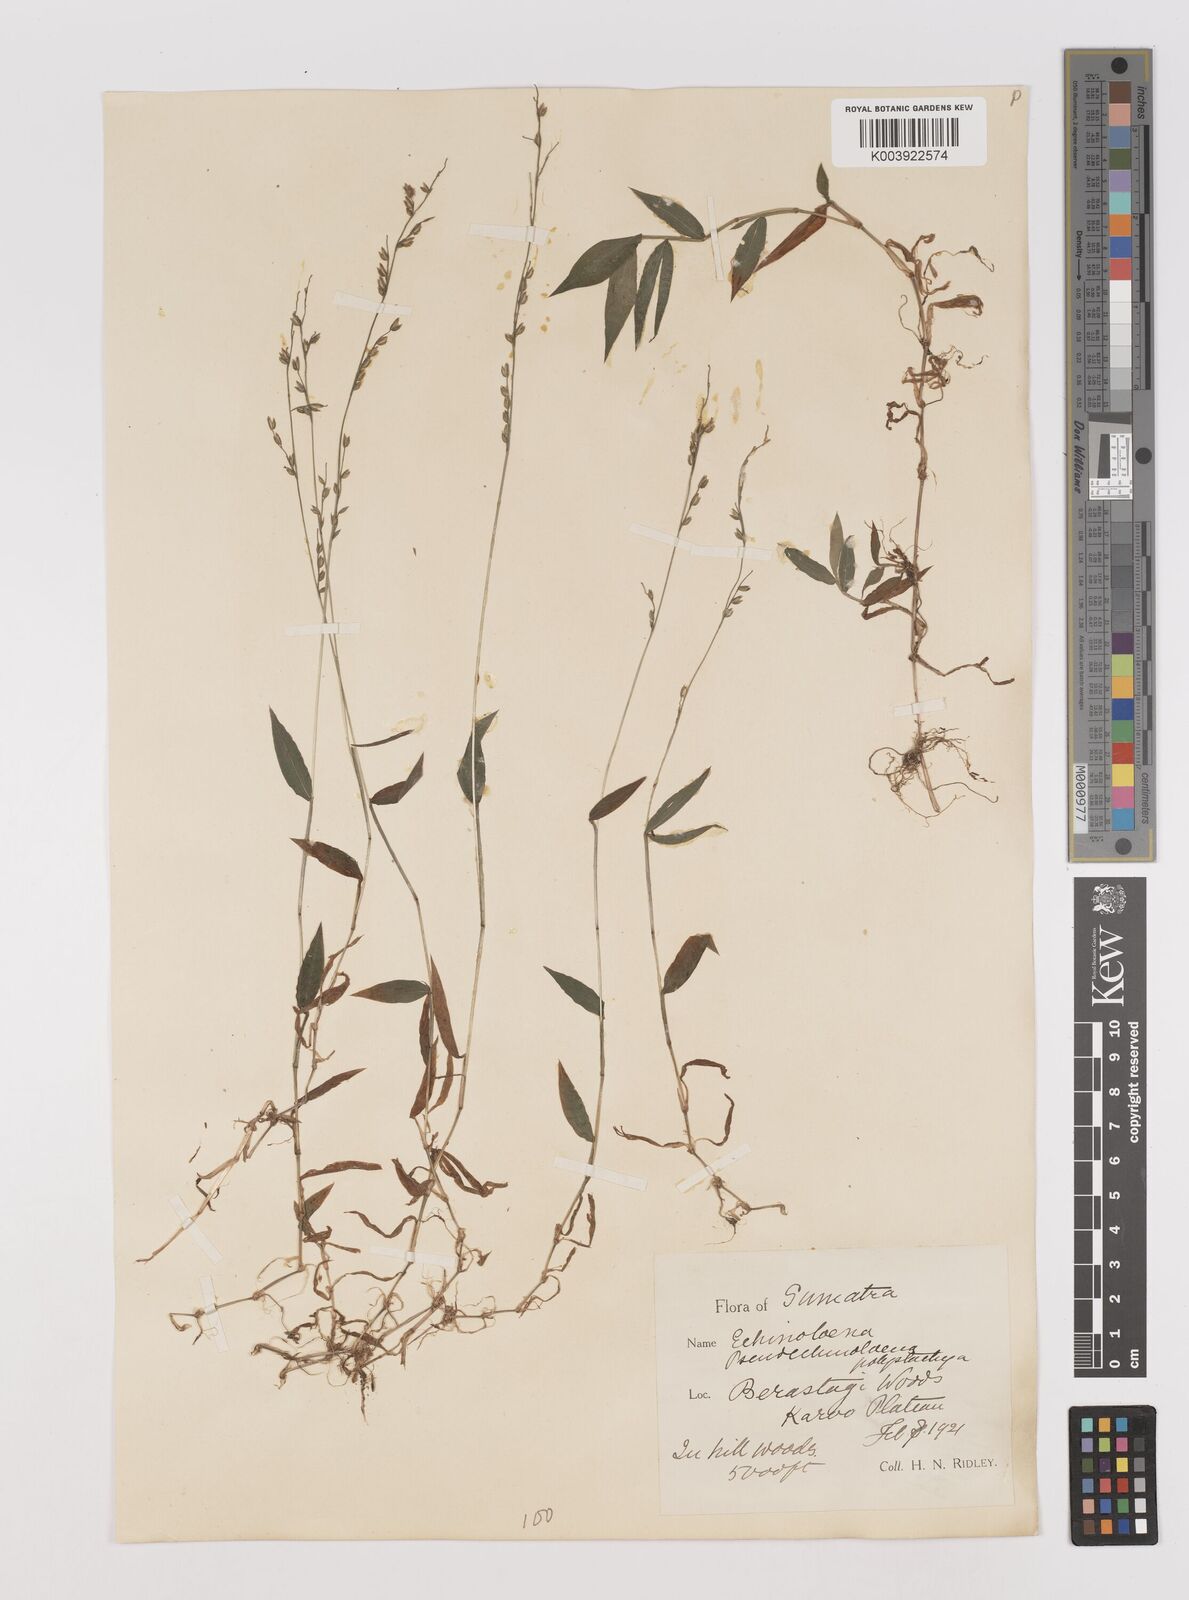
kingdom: Plantae
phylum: Tracheophyta
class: Liliopsida
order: Poales
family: Poaceae
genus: Pseudechinolaena
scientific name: Pseudechinolaena polystachya
